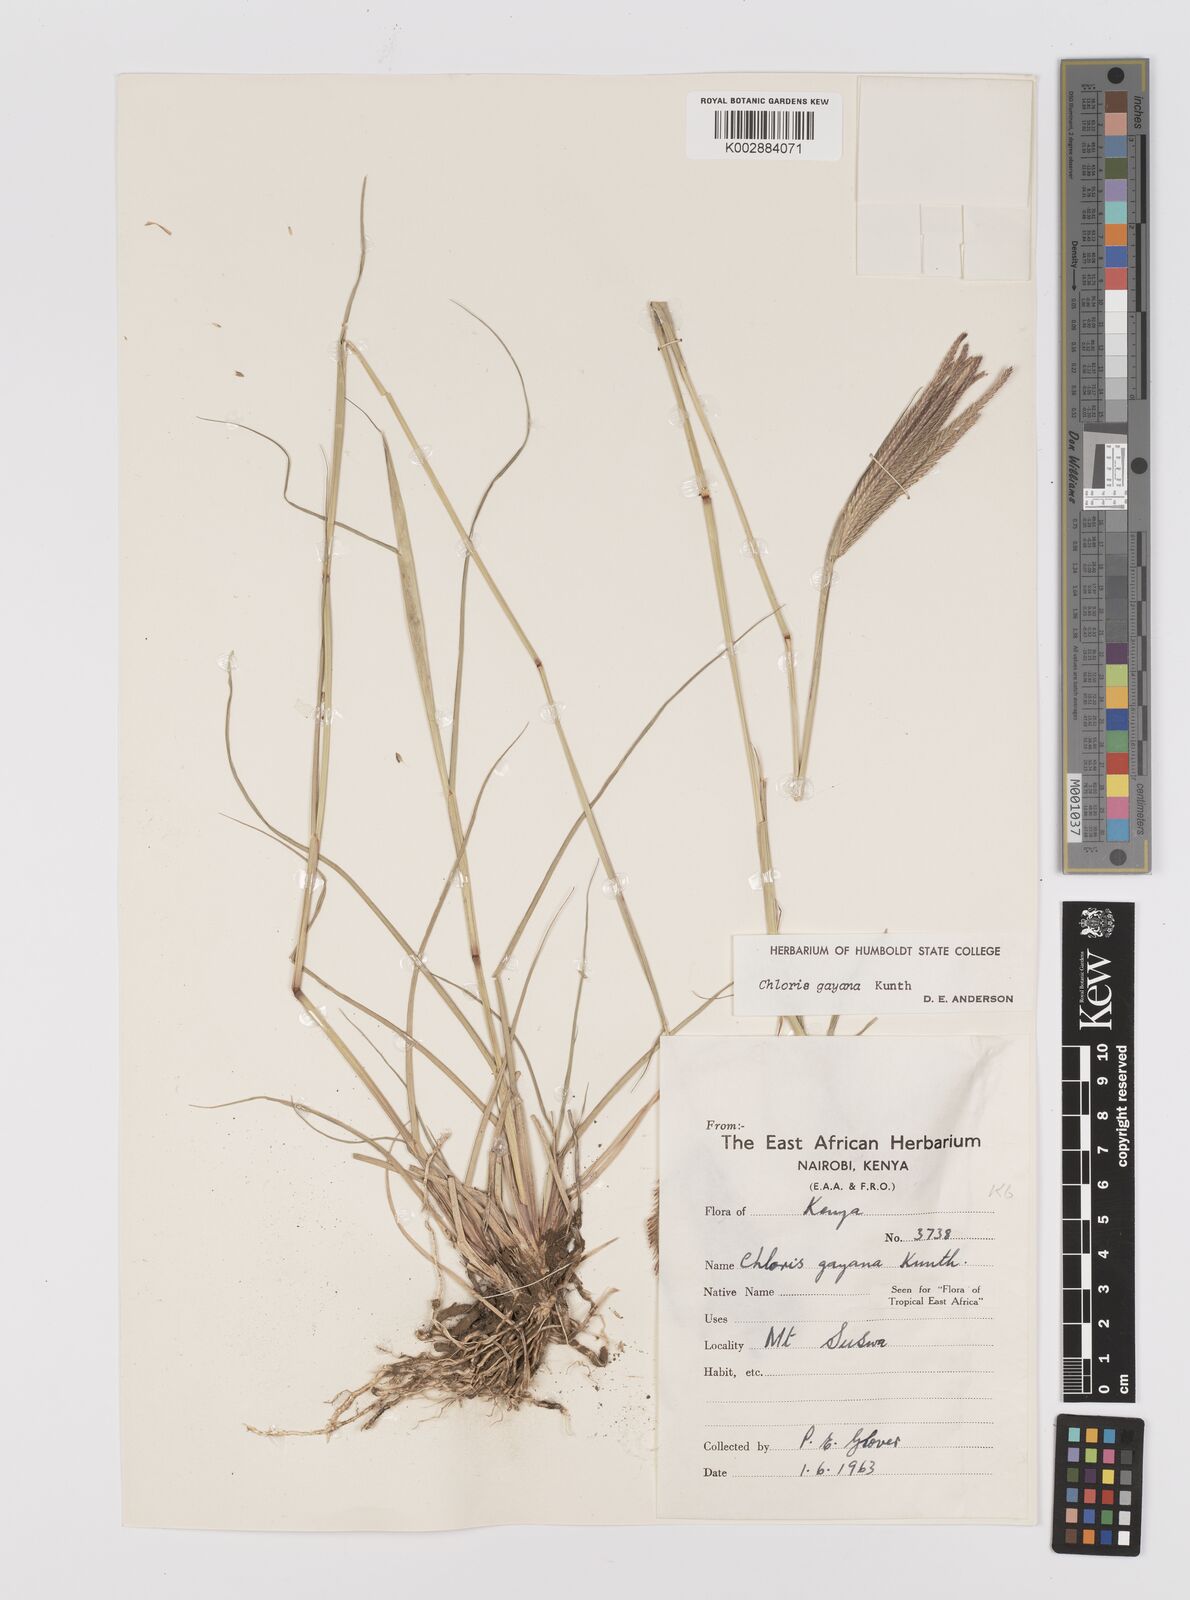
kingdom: Plantae
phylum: Tracheophyta
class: Liliopsida
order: Poales
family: Poaceae
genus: Chloris
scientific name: Chloris gayana
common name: Rhodes grass
